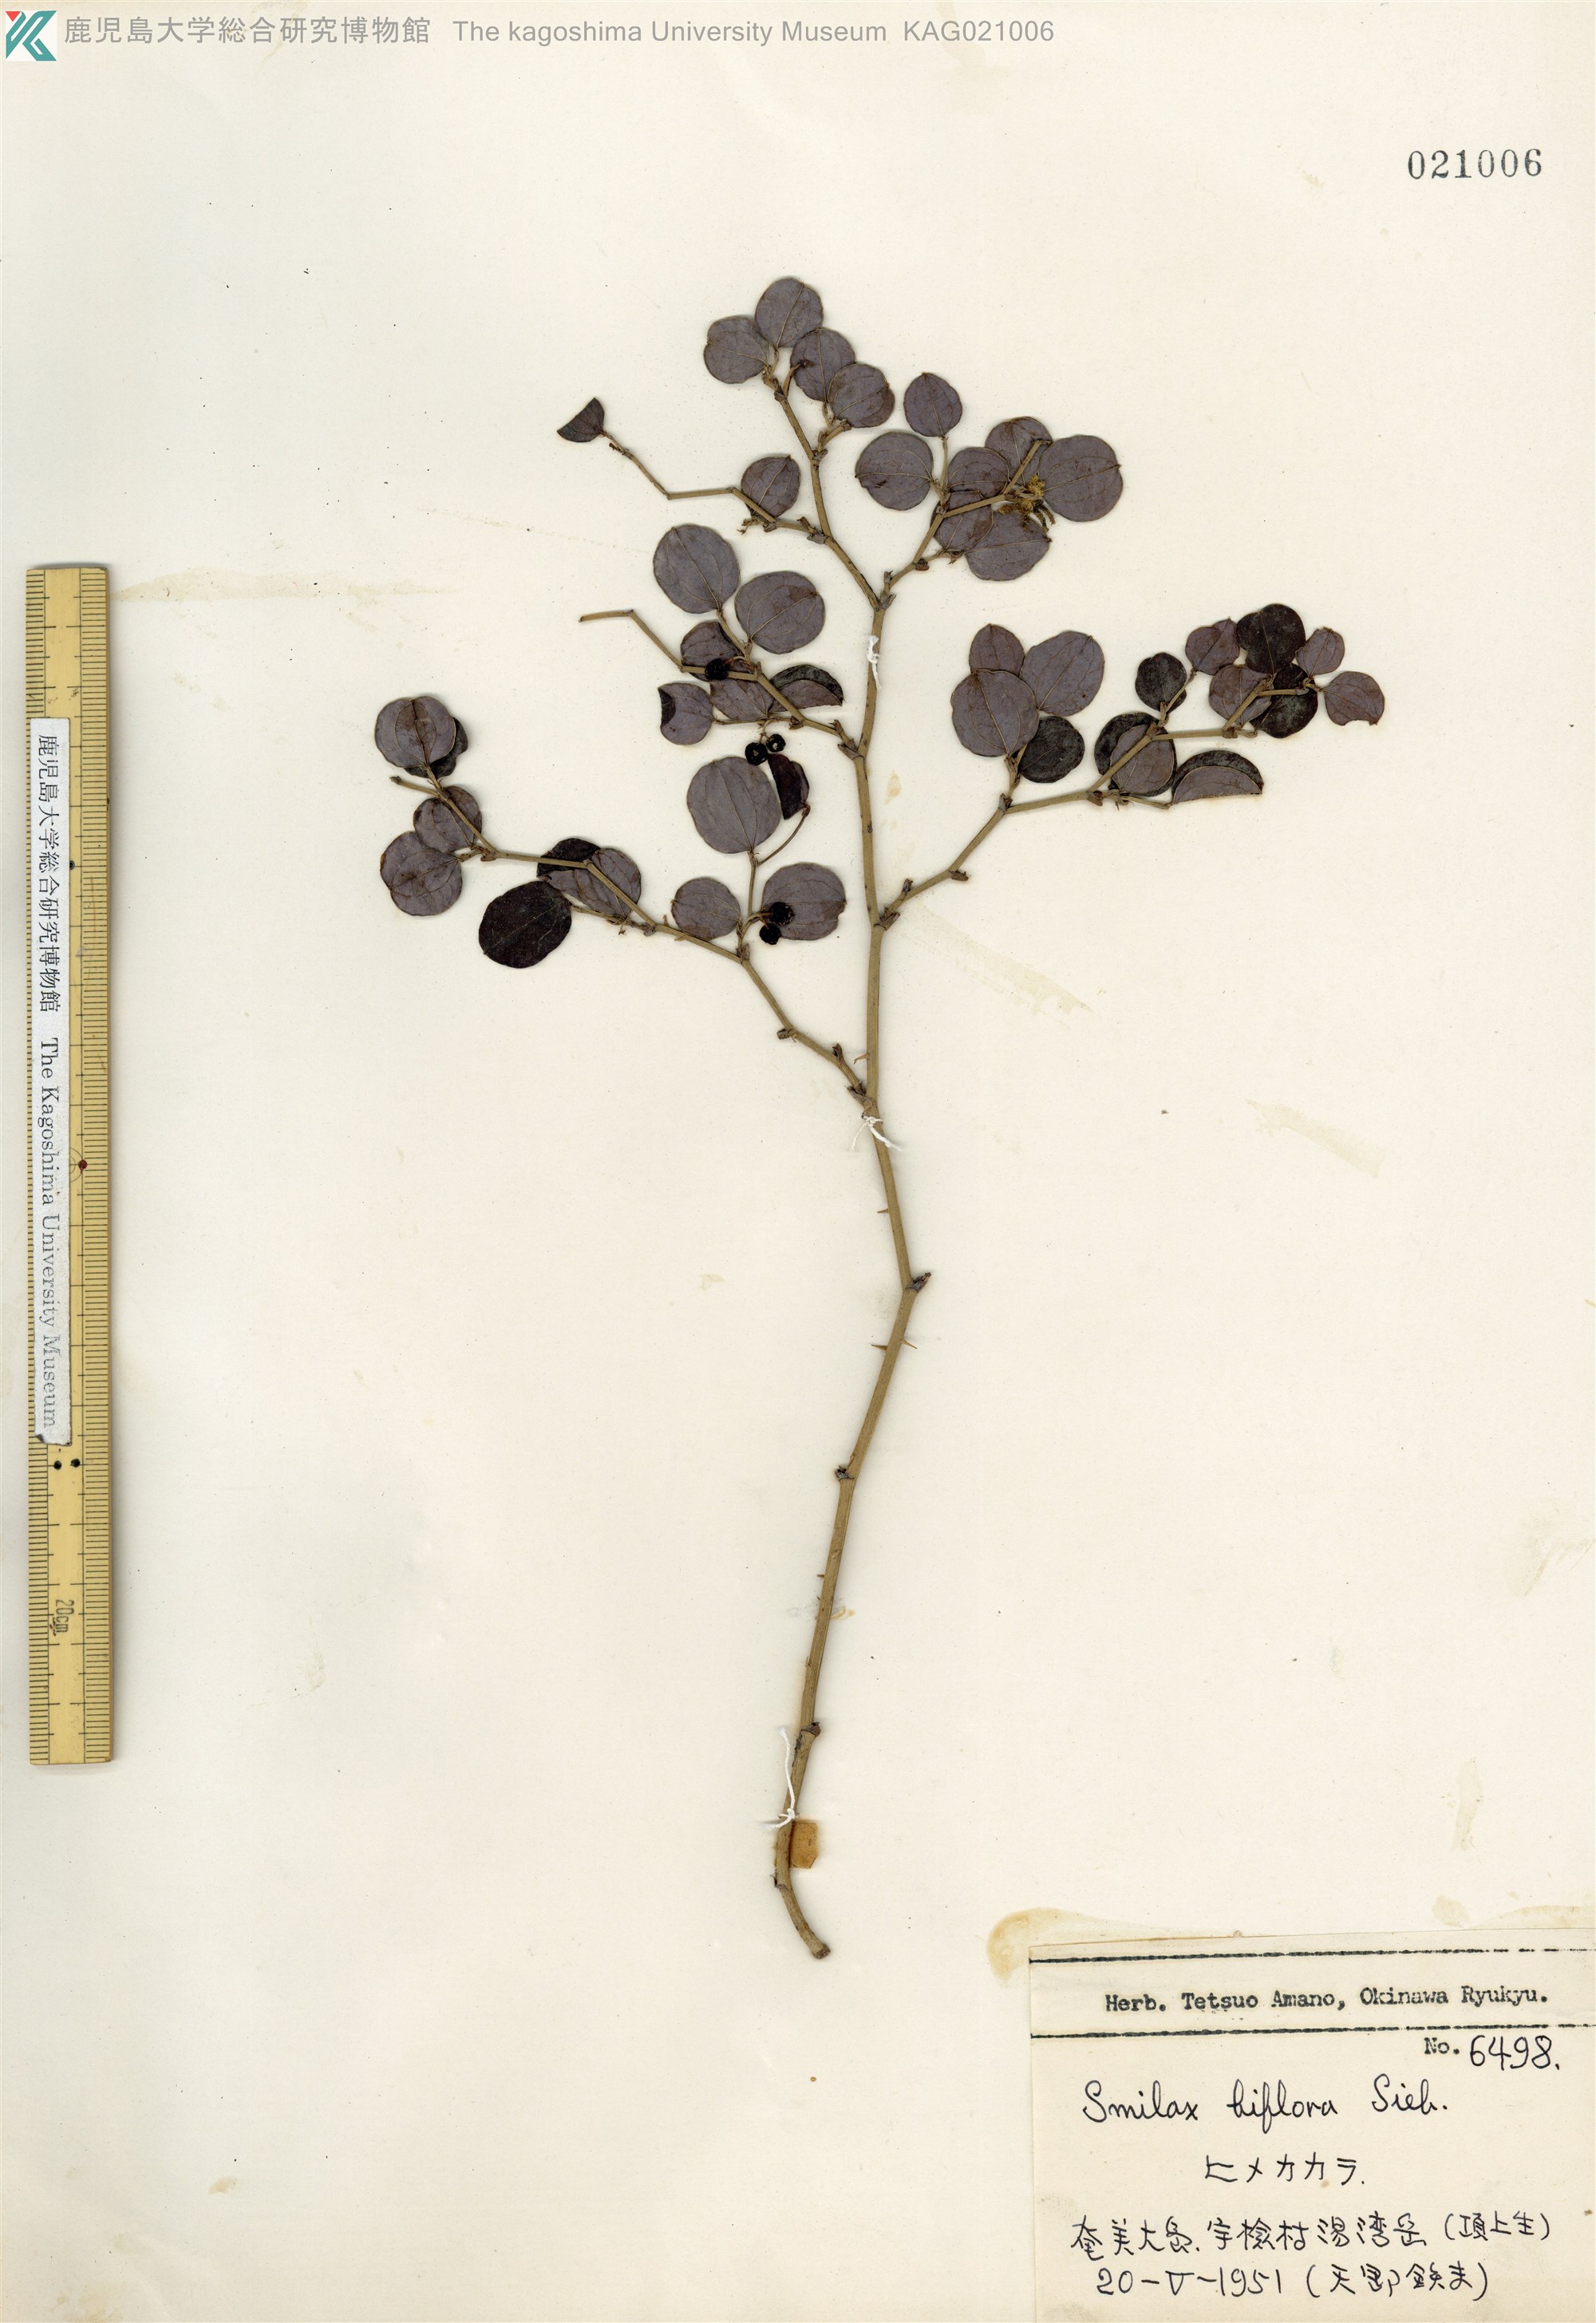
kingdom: Plantae
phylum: Tracheophyta
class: Liliopsida
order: Liliales
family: Smilacaceae
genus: Smilax
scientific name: Smilax amamiana
